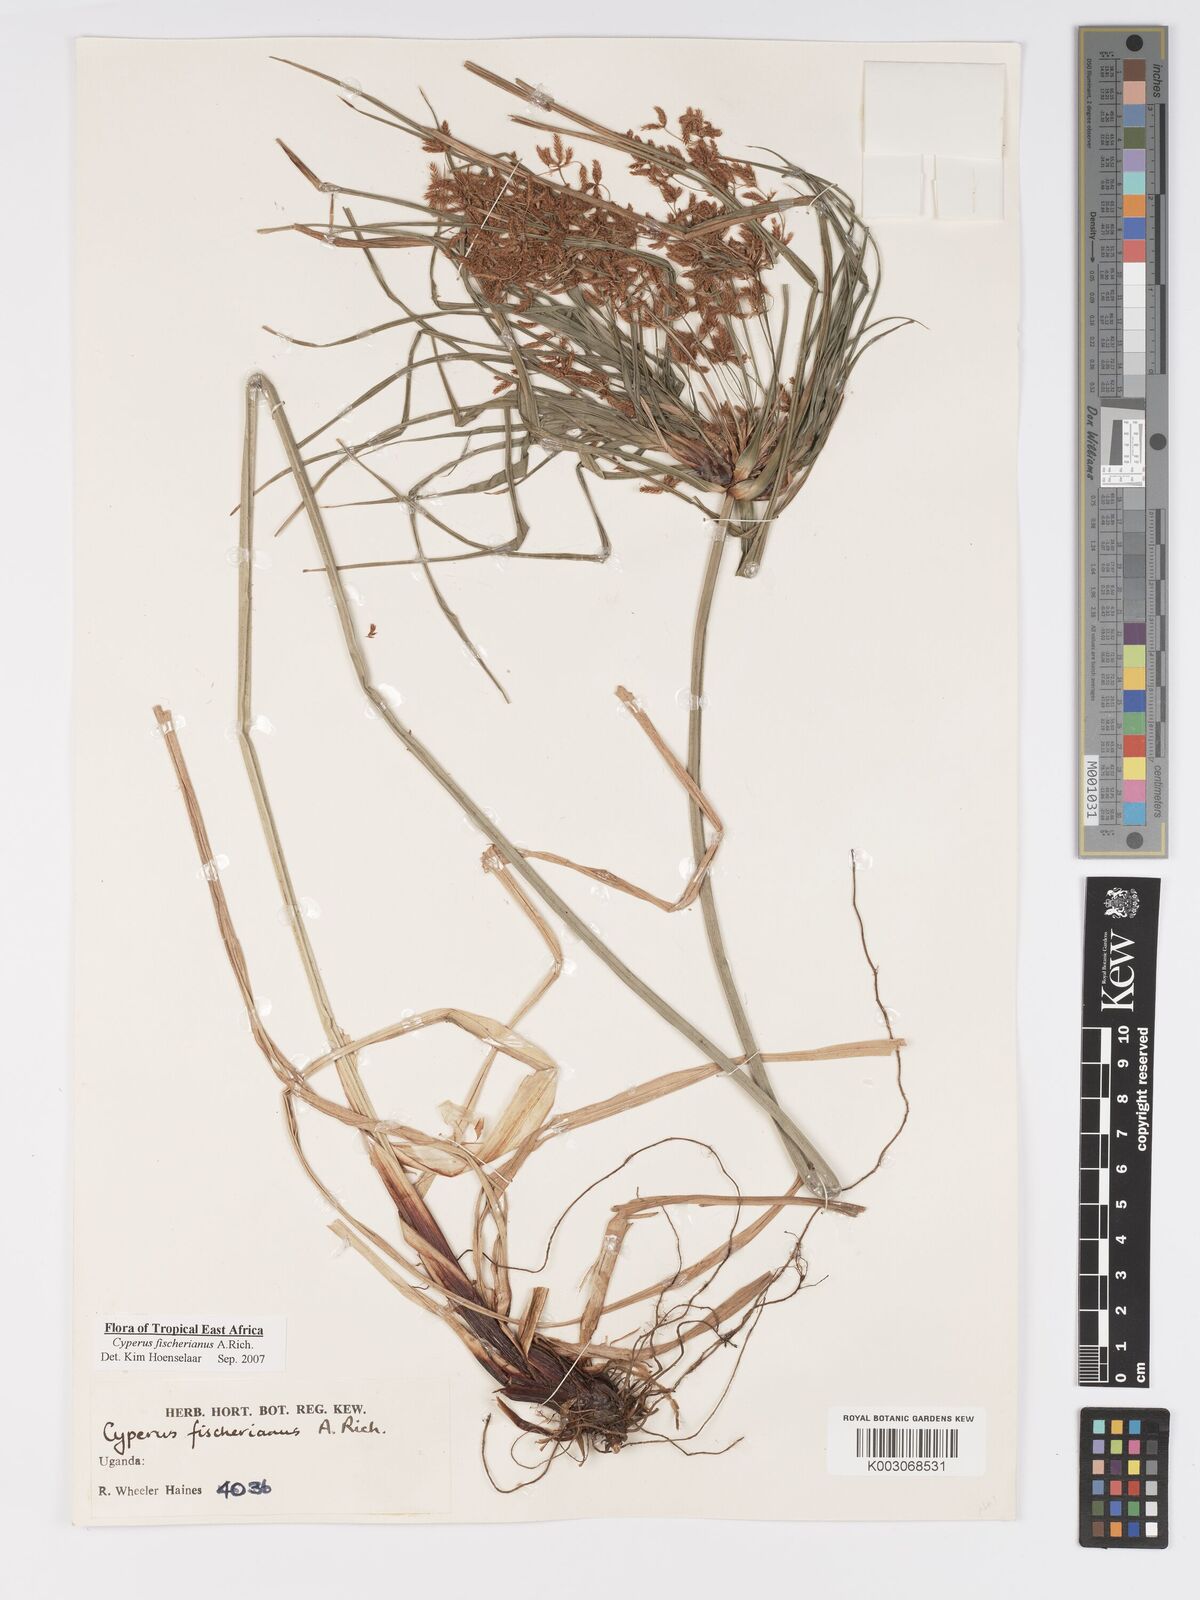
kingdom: Plantae
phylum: Tracheophyta
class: Liliopsida
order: Poales
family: Cyperaceae
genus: Cyperus
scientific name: Cyperus fischerianus
